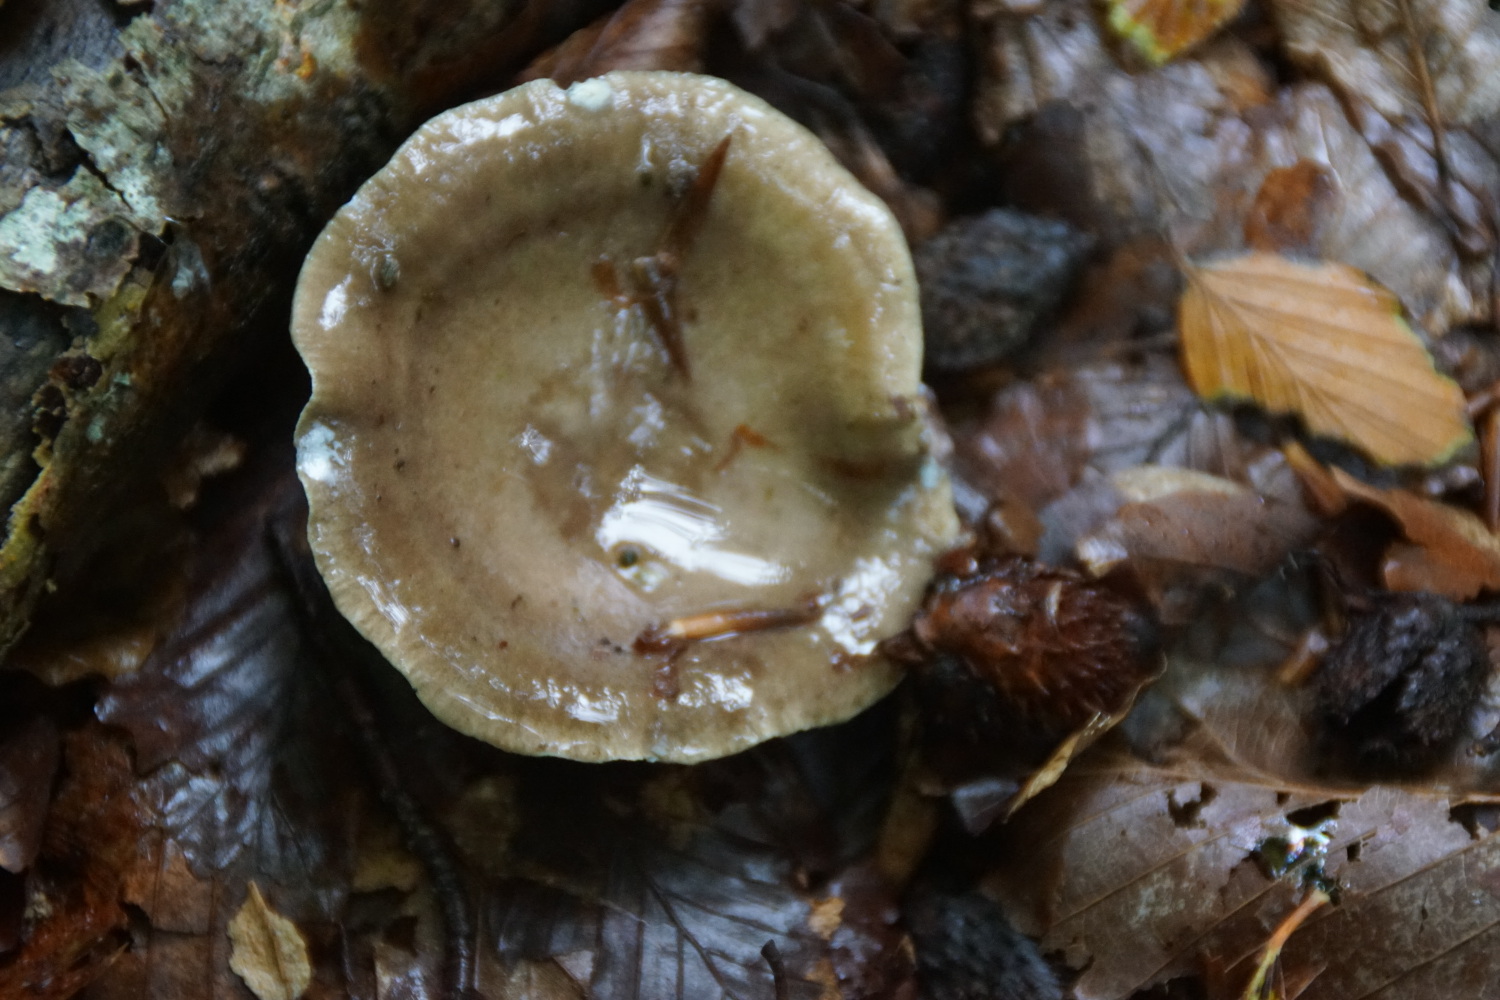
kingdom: Fungi
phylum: Basidiomycota
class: Agaricomycetes
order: Russulales
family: Russulaceae
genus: Lactarius
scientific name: Lactarius blennius
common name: dråbeplettet mælkehat
